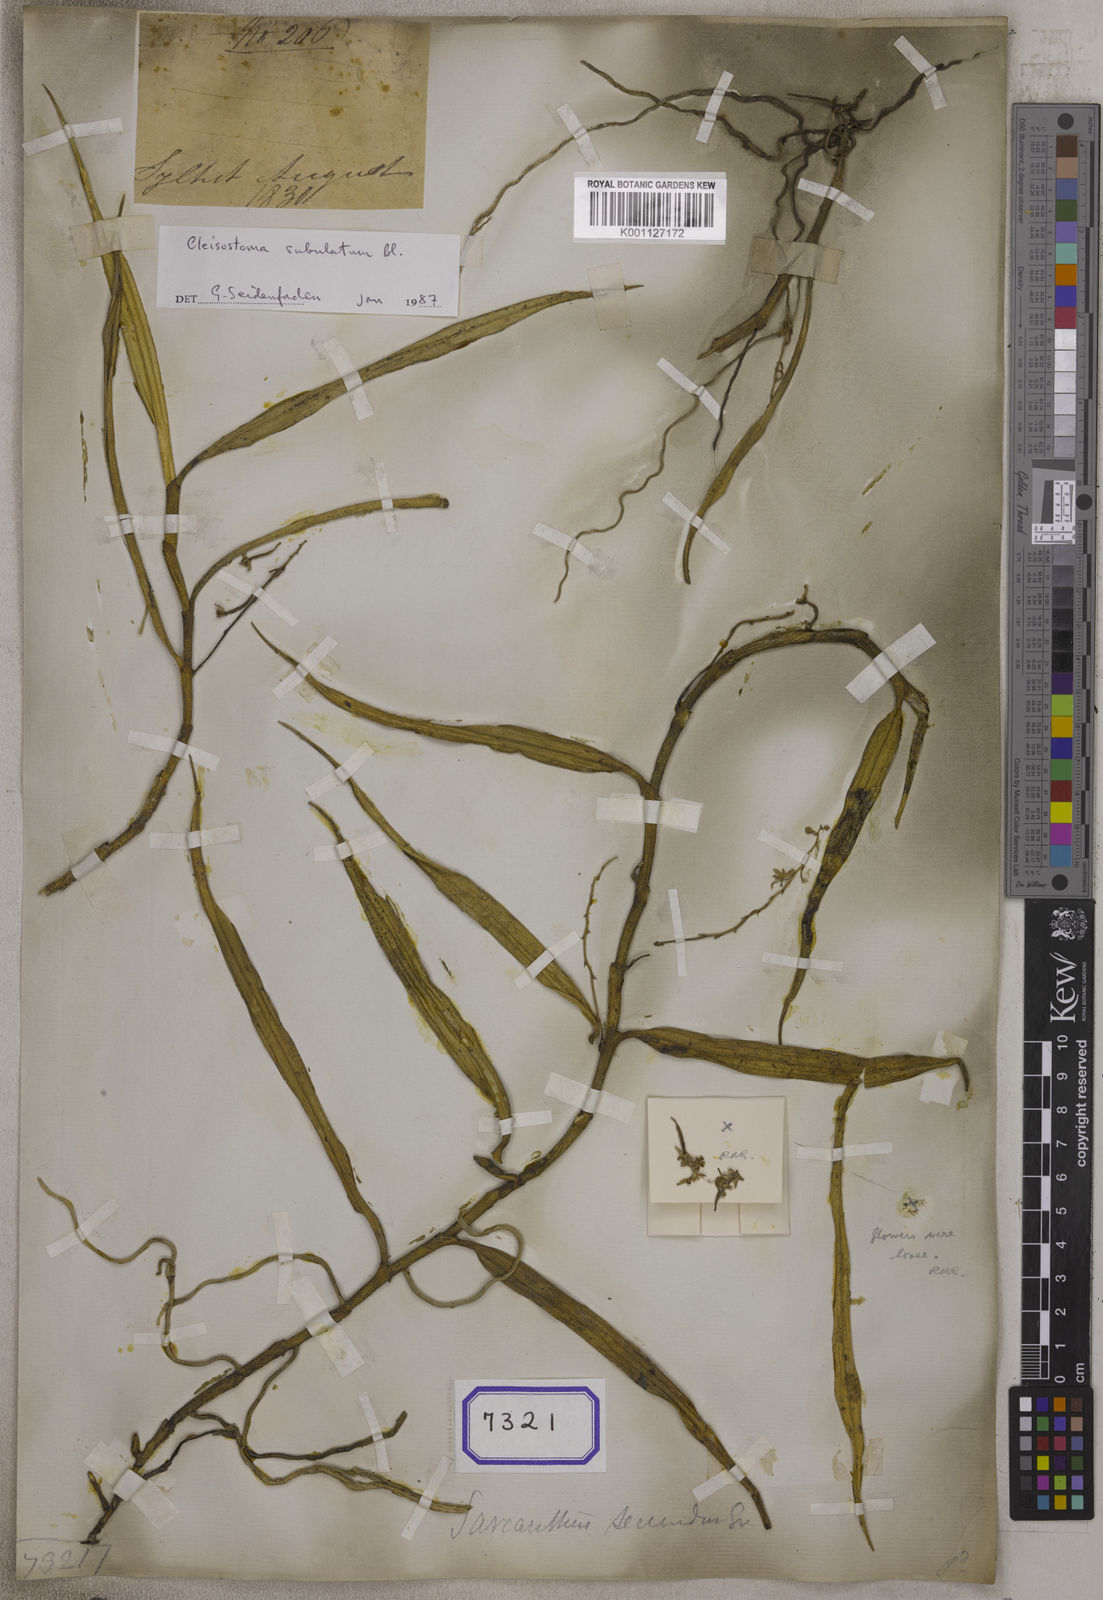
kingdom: Plantae
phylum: Tracheophyta
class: Liliopsida
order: Asparagales
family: Orchidaceae
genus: Micropera
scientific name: Micropera pallida
